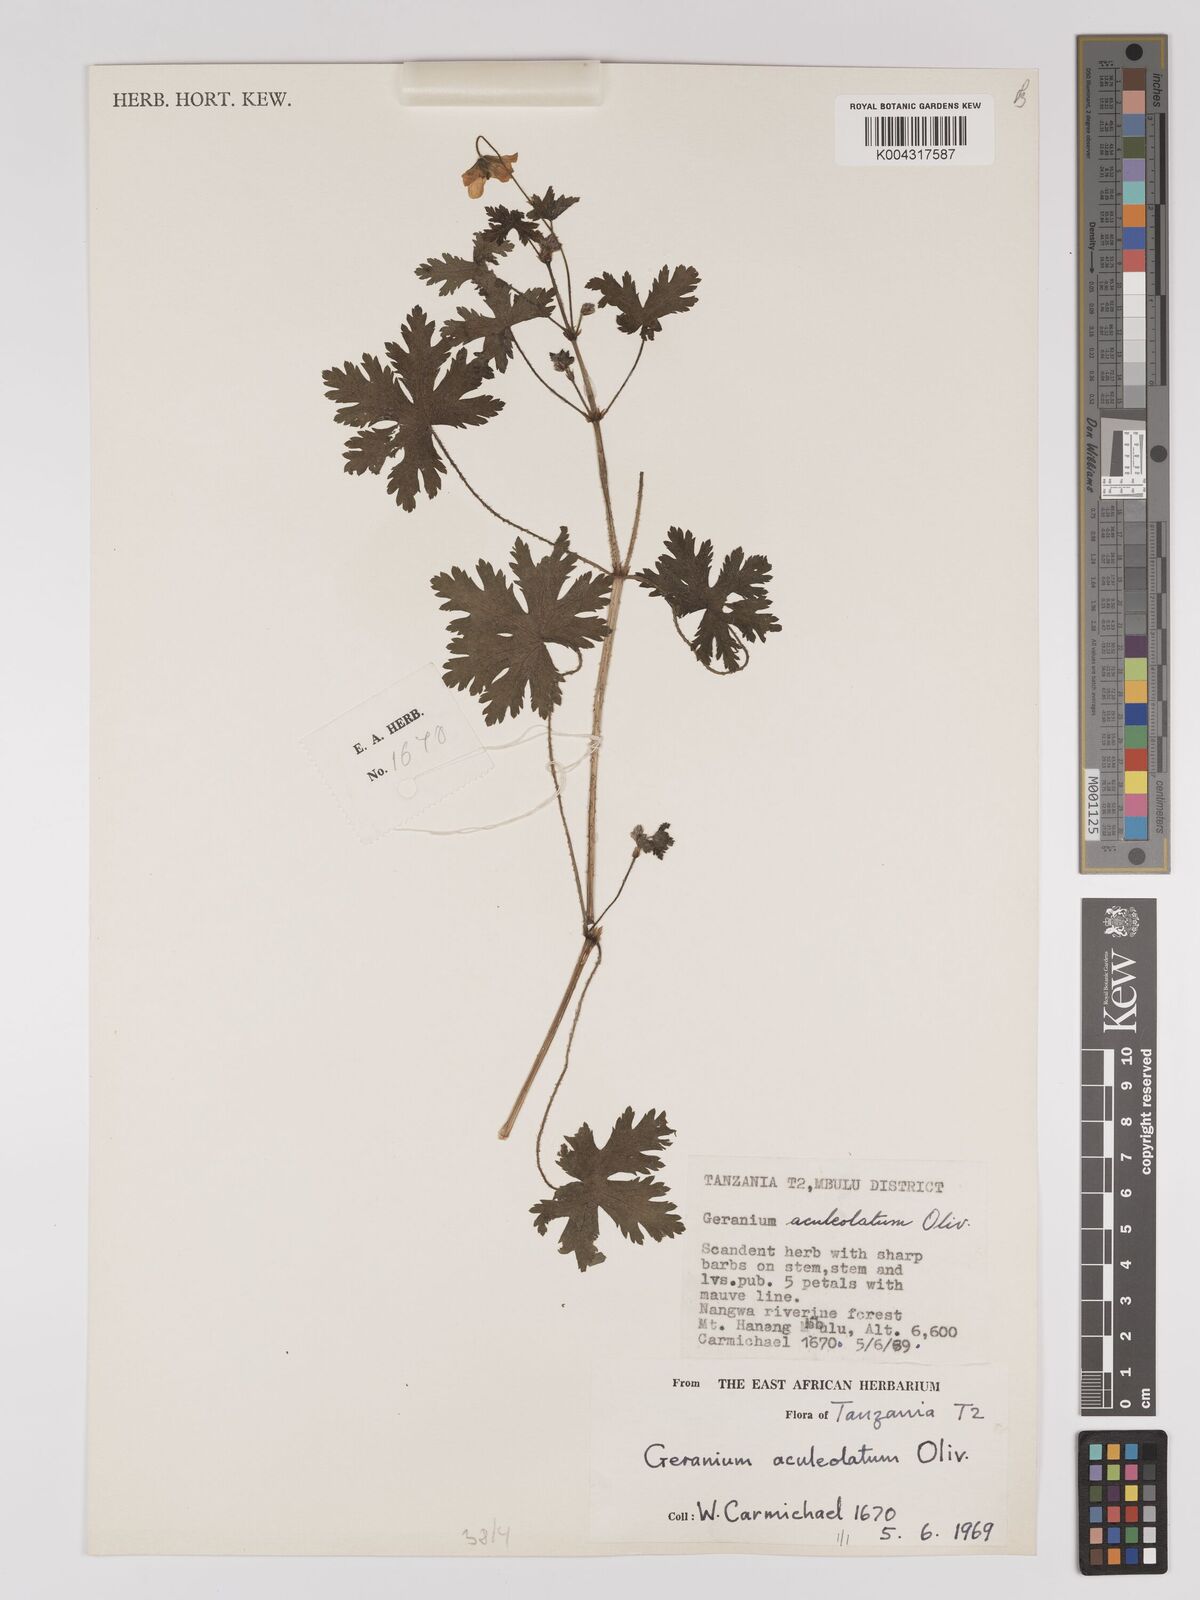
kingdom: Plantae
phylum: Tracheophyta
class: Magnoliopsida
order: Geraniales
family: Geraniaceae
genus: Geranium
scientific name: Geranium aculeolatum
